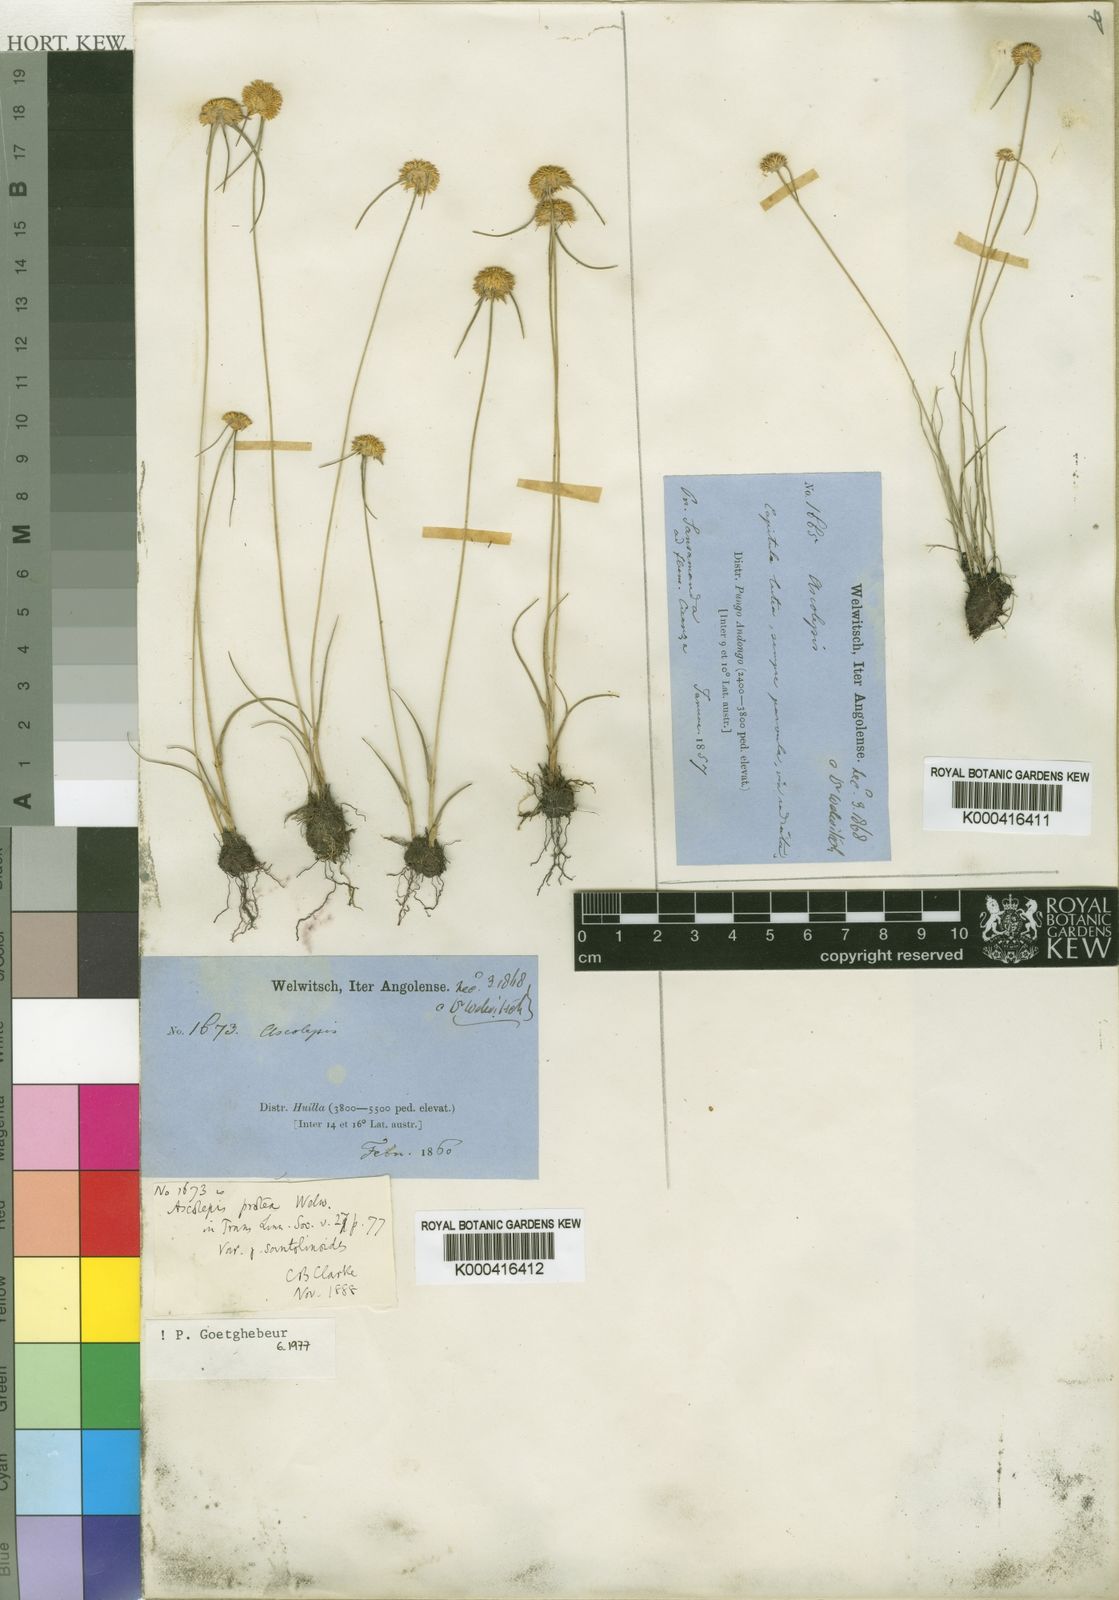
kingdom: Plantae
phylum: Tracheophyta
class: Liliopsida
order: Poales
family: Cyperaceae
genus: Cyperus
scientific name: Cyperus proteus
